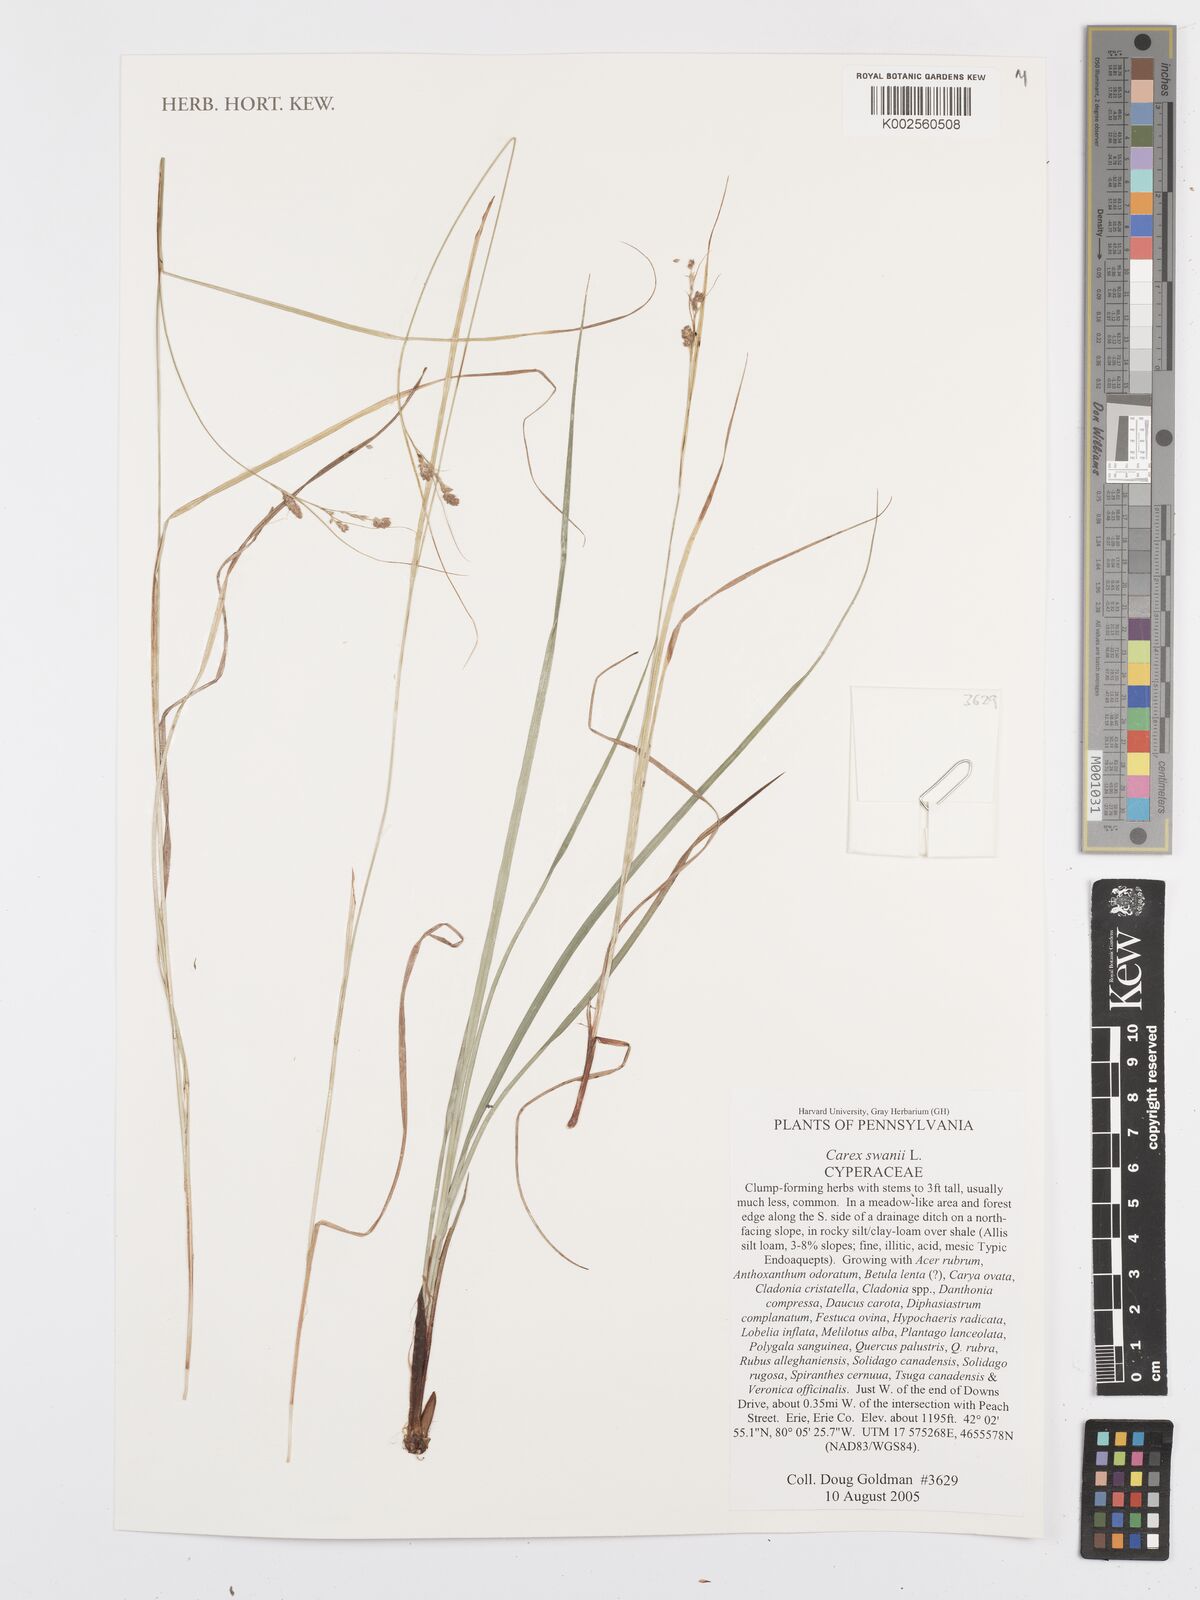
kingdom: Plantae
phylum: Tracheophyta
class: Liliopsida
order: Poales
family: Cyperaceae
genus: Carex
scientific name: Carex swanii
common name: Downy green sedge
